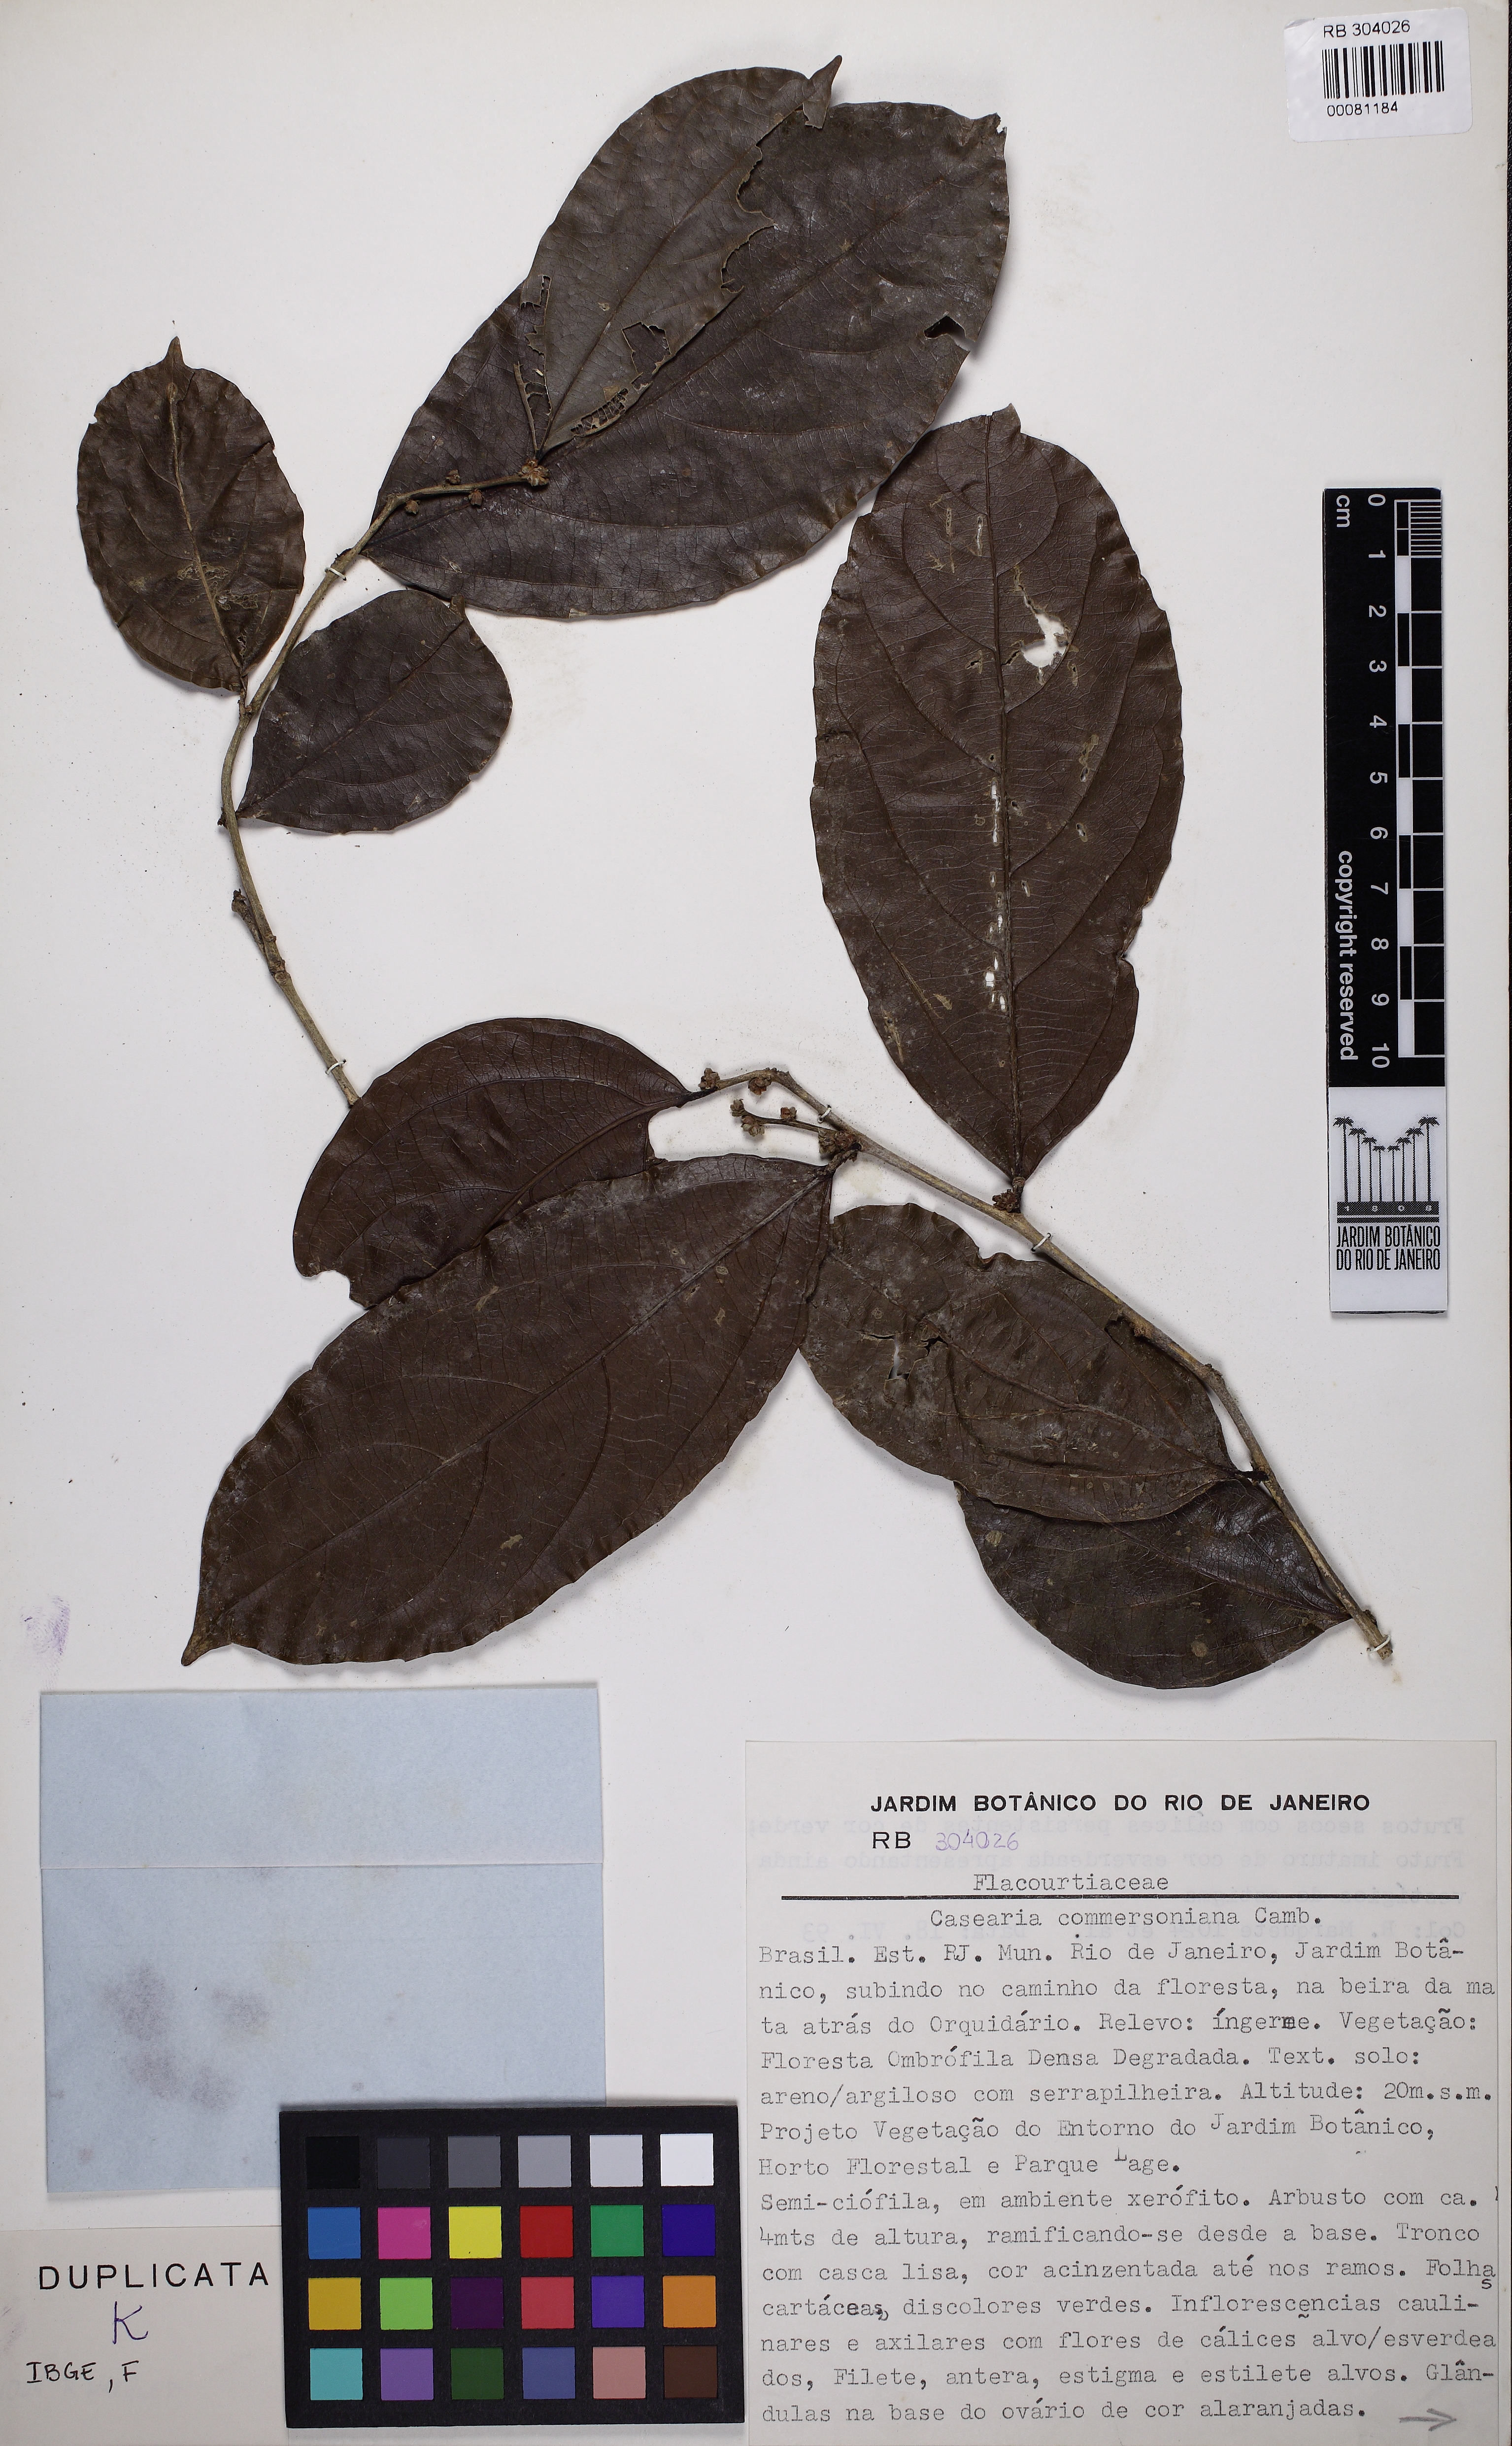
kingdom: Plantae
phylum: Tracheophyta
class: Magnoliopsida
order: Malpighiales
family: Salicaceae
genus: Piparea
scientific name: Piparea dentata
